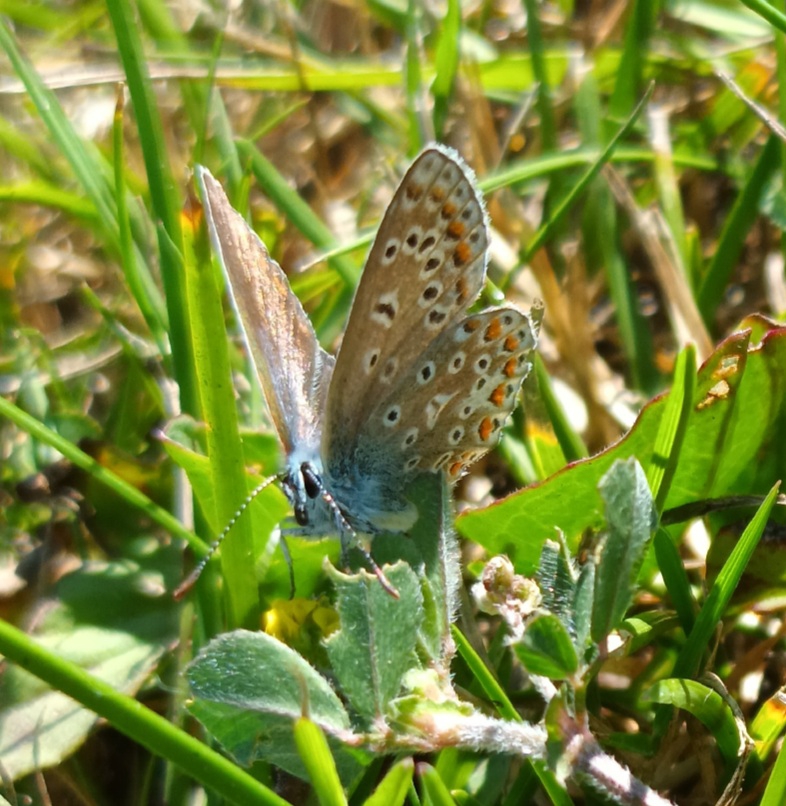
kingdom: Animalia
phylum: Arthropoda
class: Insecta
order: Lepidoptera
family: Lycaenidae
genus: Polyommatus
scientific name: Polyommatus icarus
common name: Almindelig blåfugl
